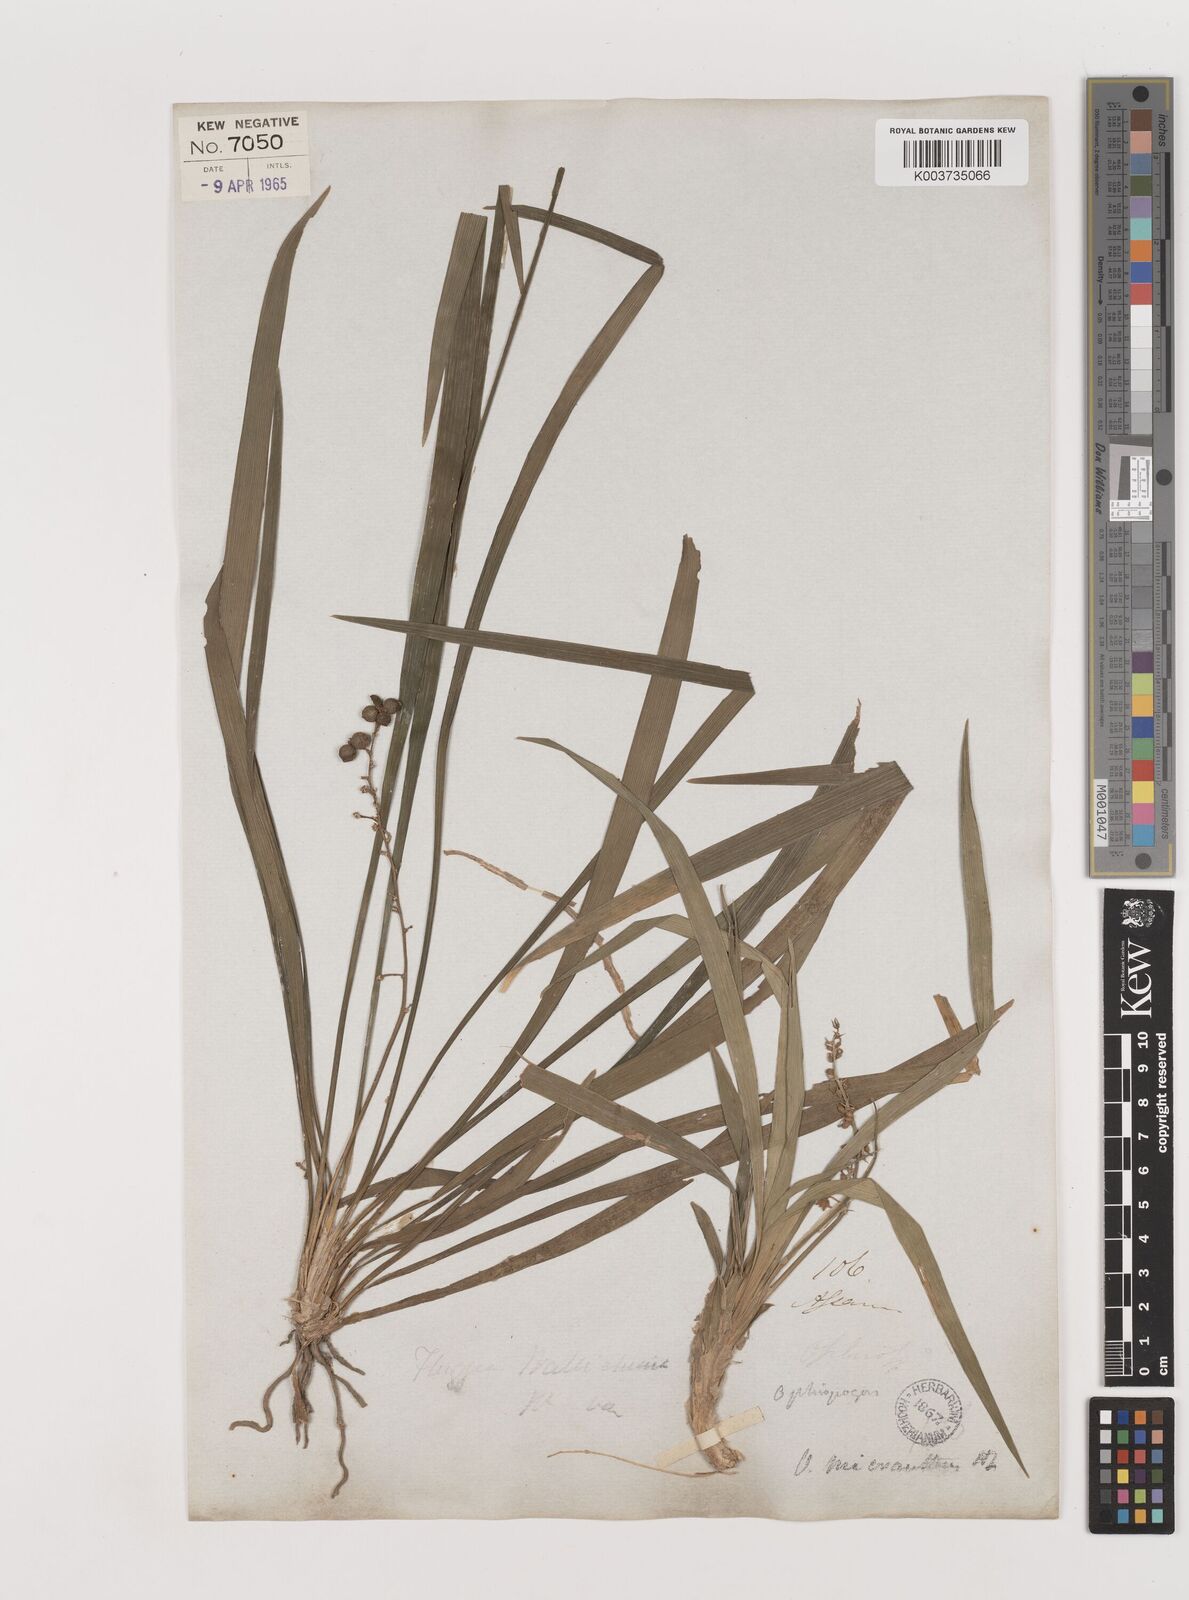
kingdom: Plantae
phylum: Tracheophyta
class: Liliopsida
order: Asparagales
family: Asparagaceae
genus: Ophiopogon
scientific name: Ophiopogon micranthus
